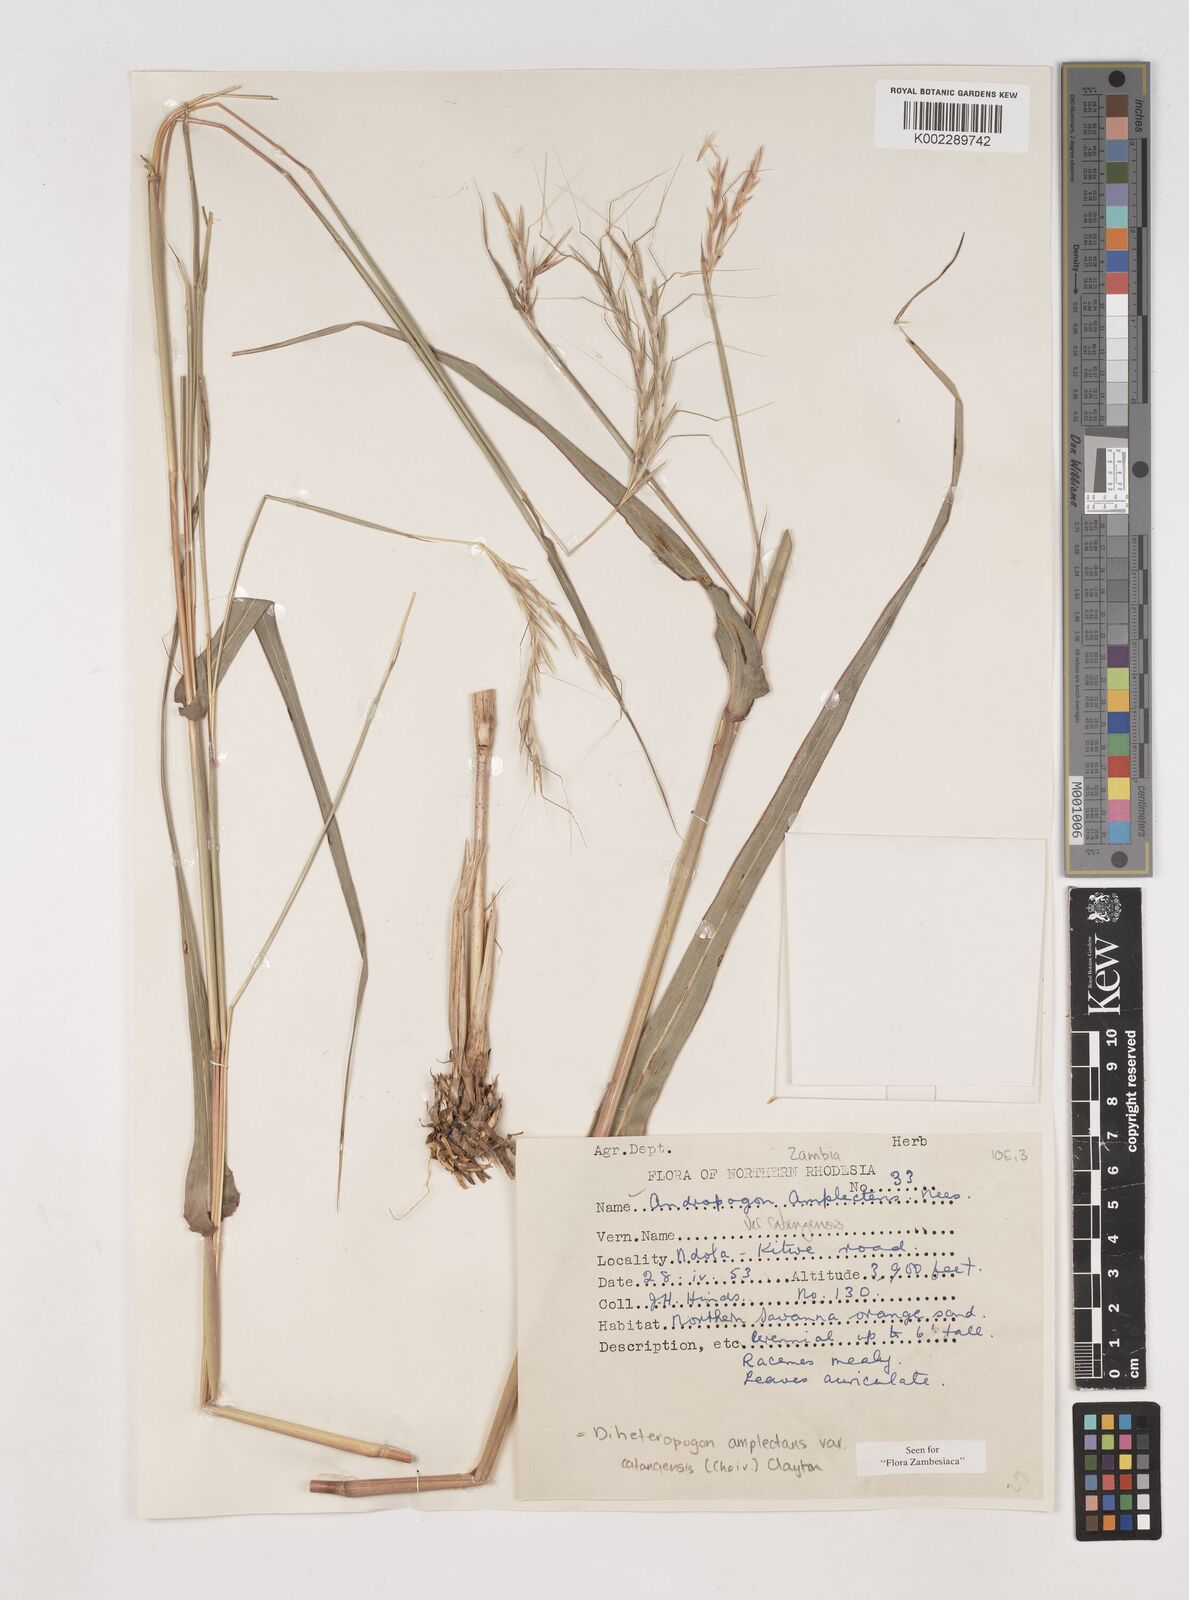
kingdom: Plantae
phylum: Tracheophyta
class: Liliopsida
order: Poales
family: Poaceae
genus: Diheteropogon
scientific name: Diheteropogon amplectens
